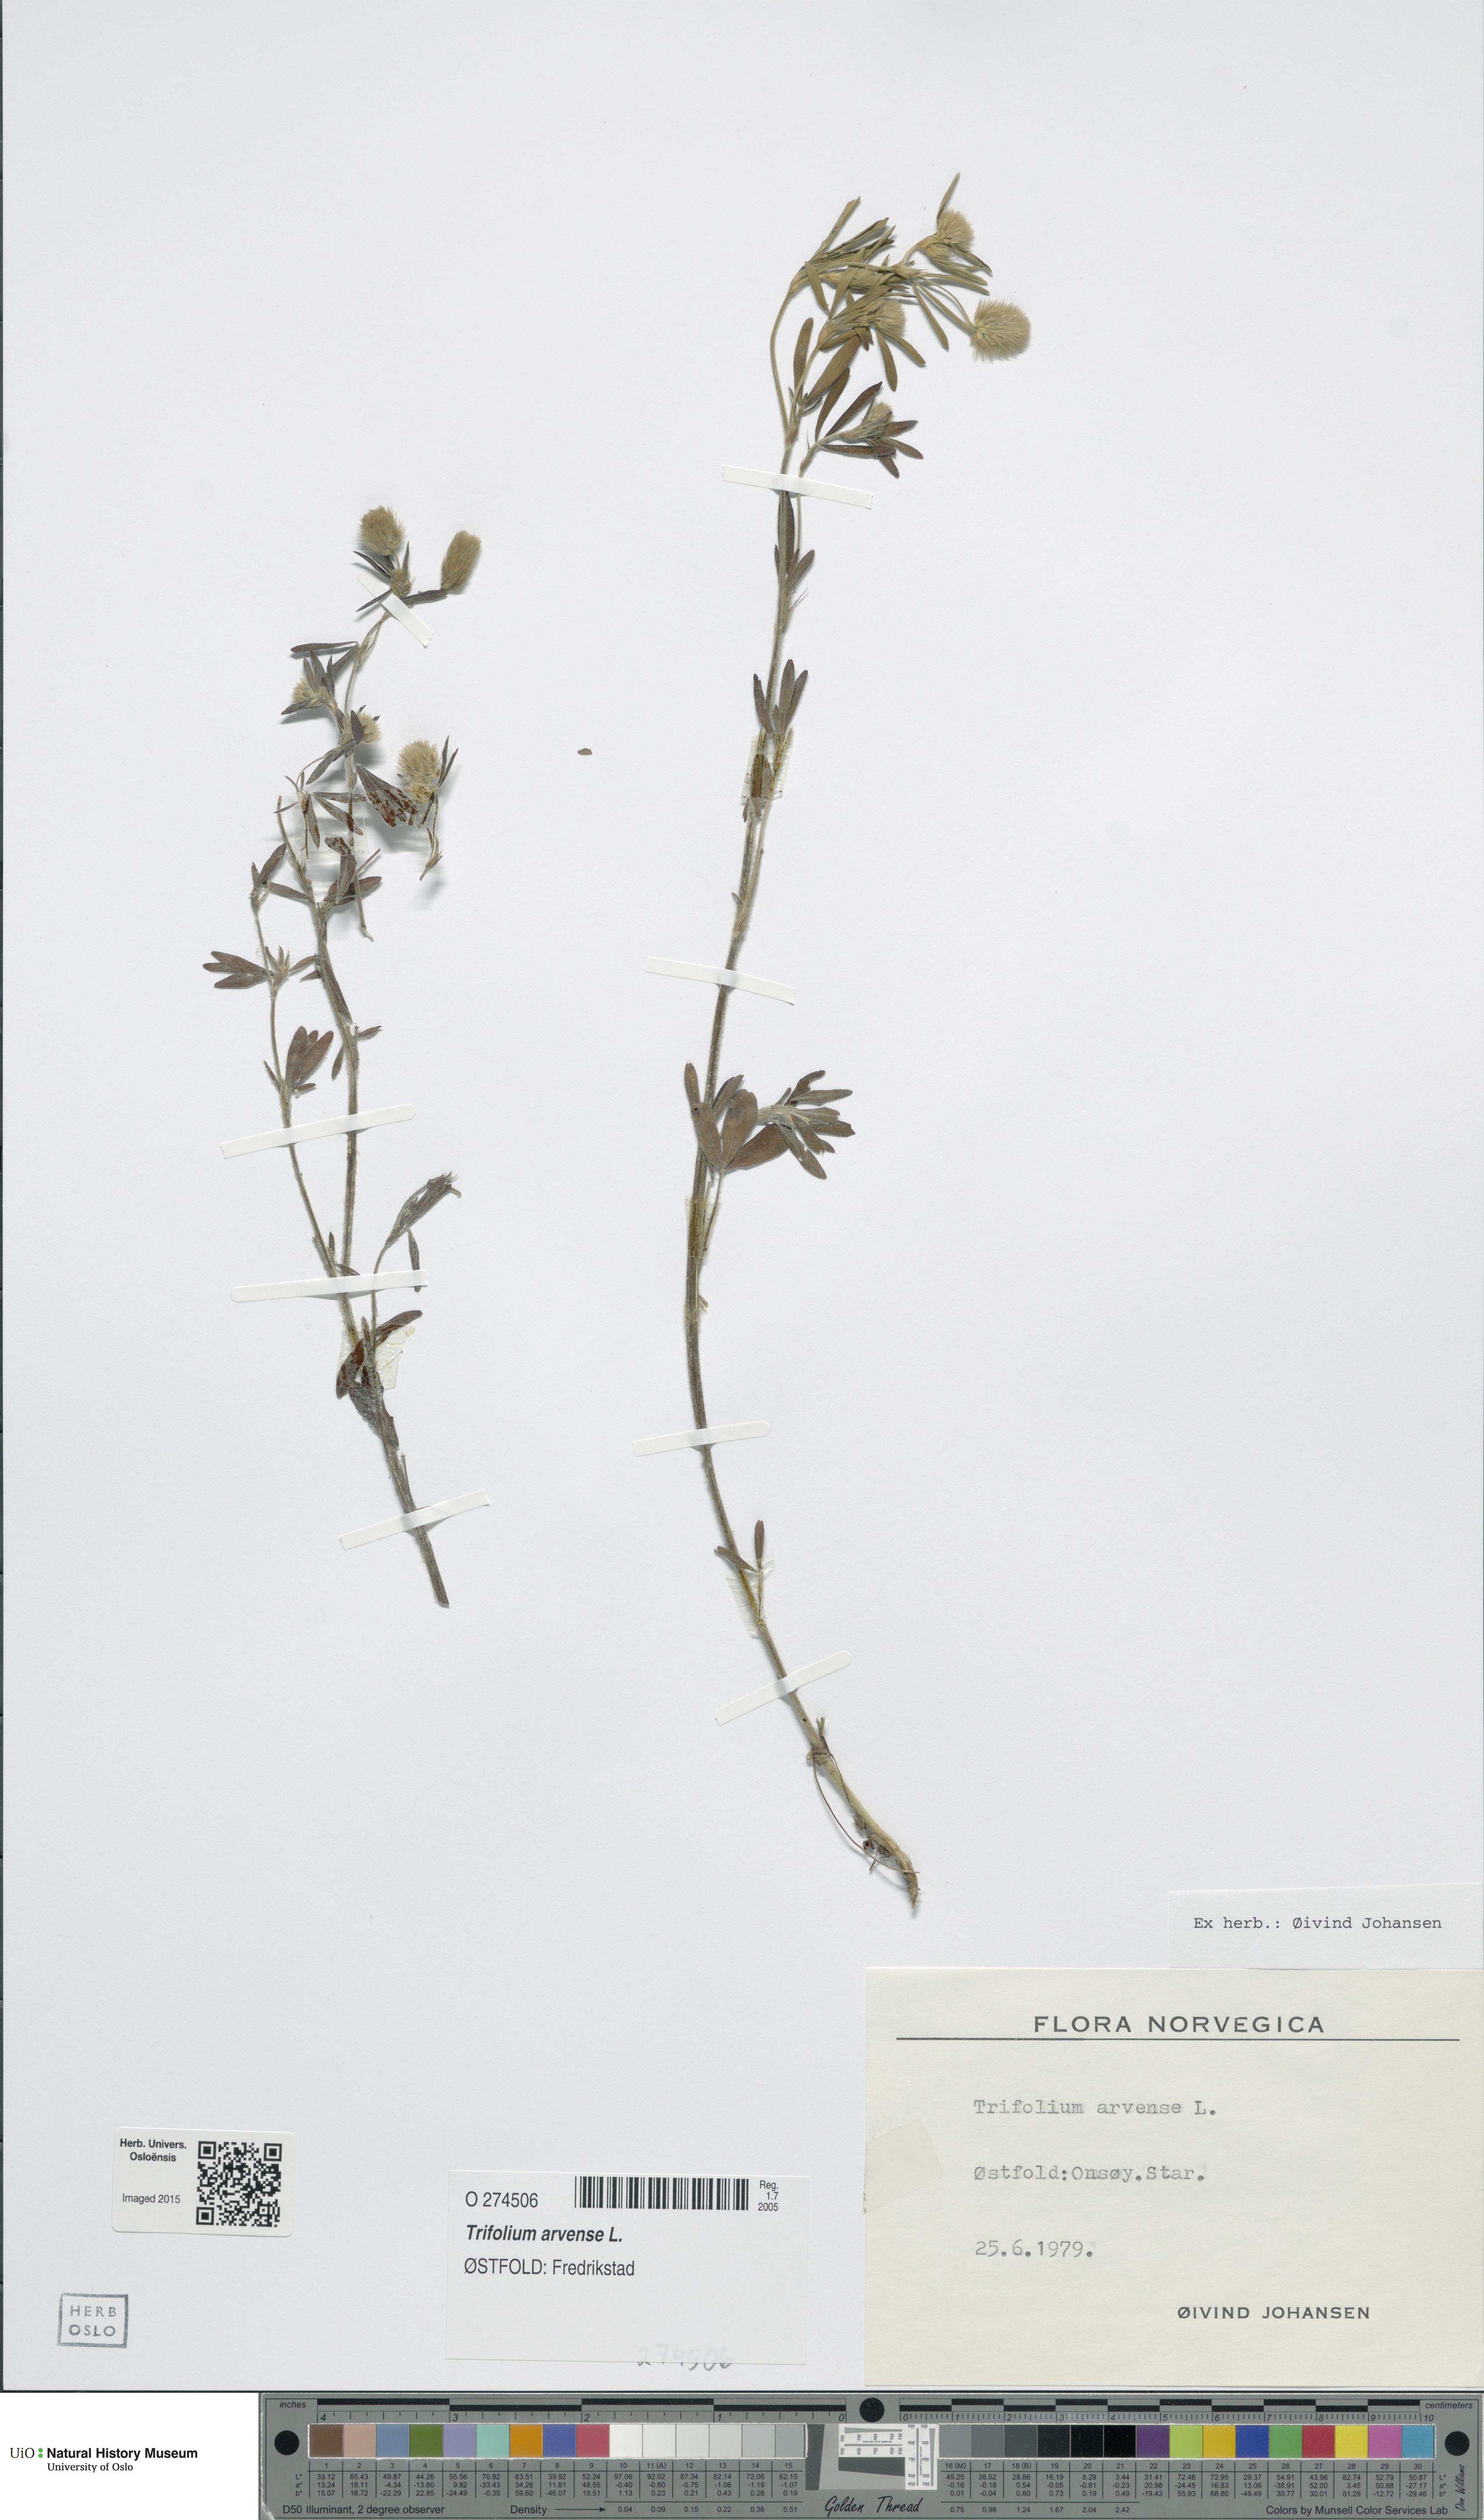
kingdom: Plantae
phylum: Tracheophyta
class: Magnoliopsida
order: Fabales
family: Fabaceae
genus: Trifolium
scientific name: Trifolium arvense
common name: Hare's-foot clover
